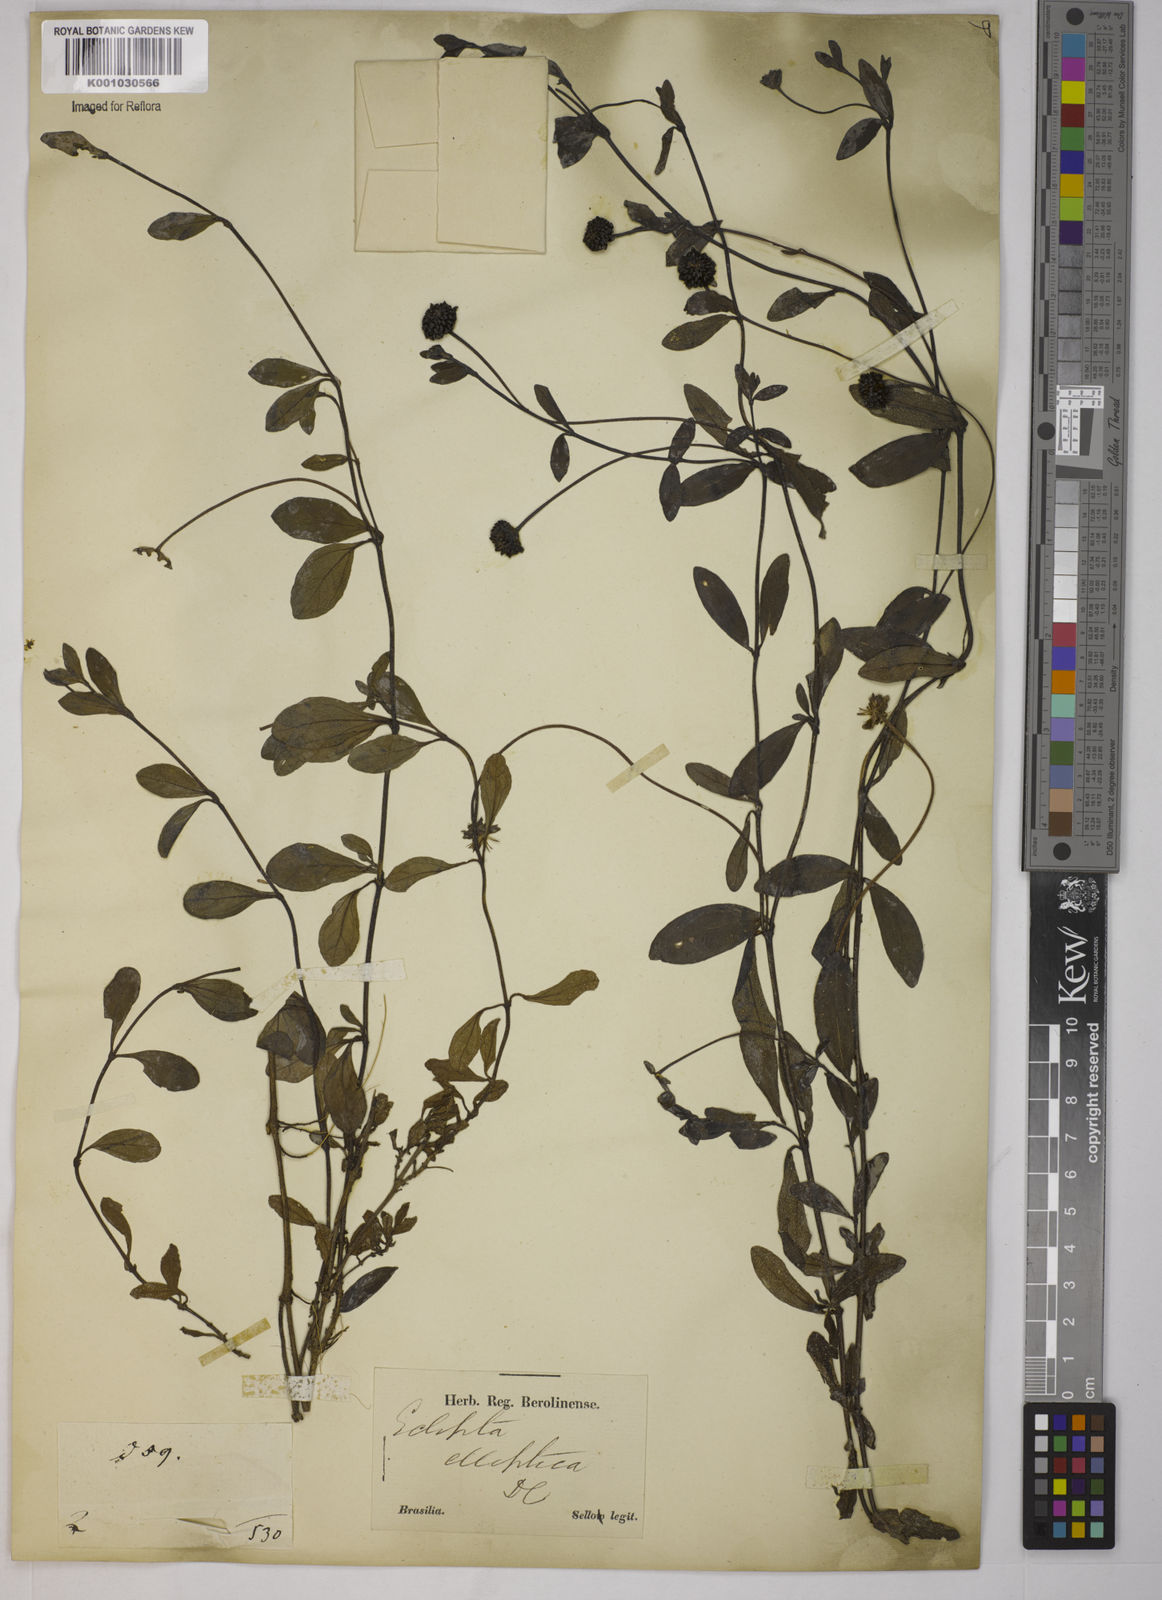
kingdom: Plantae
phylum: Tracheophyta
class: Magnoliopsida
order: Asterales
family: Asteraceae
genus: Eclipta
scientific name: Eclipta elliptica
